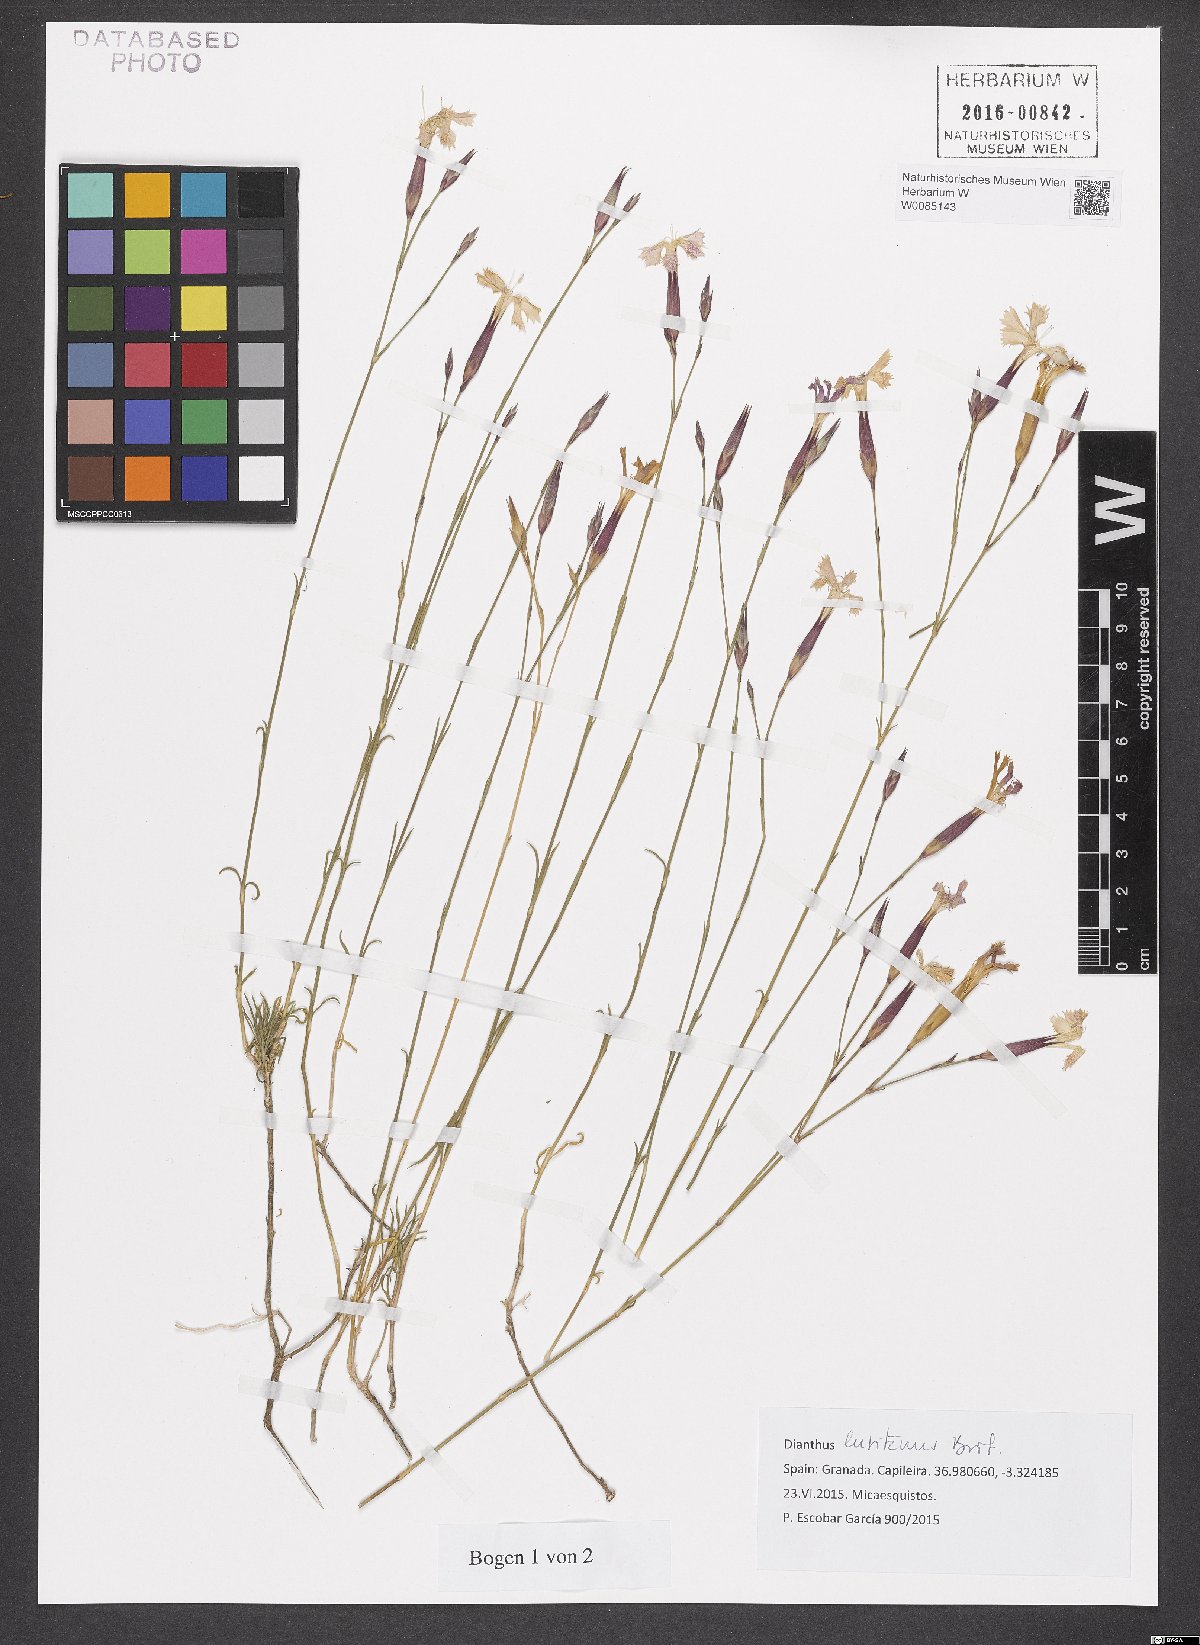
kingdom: Plantae
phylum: Tracheophyta
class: Magnoliopsida
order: Caryophyllales
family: Caryophyllaceae
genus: Dianthus
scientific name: Dianthus lusitanus
